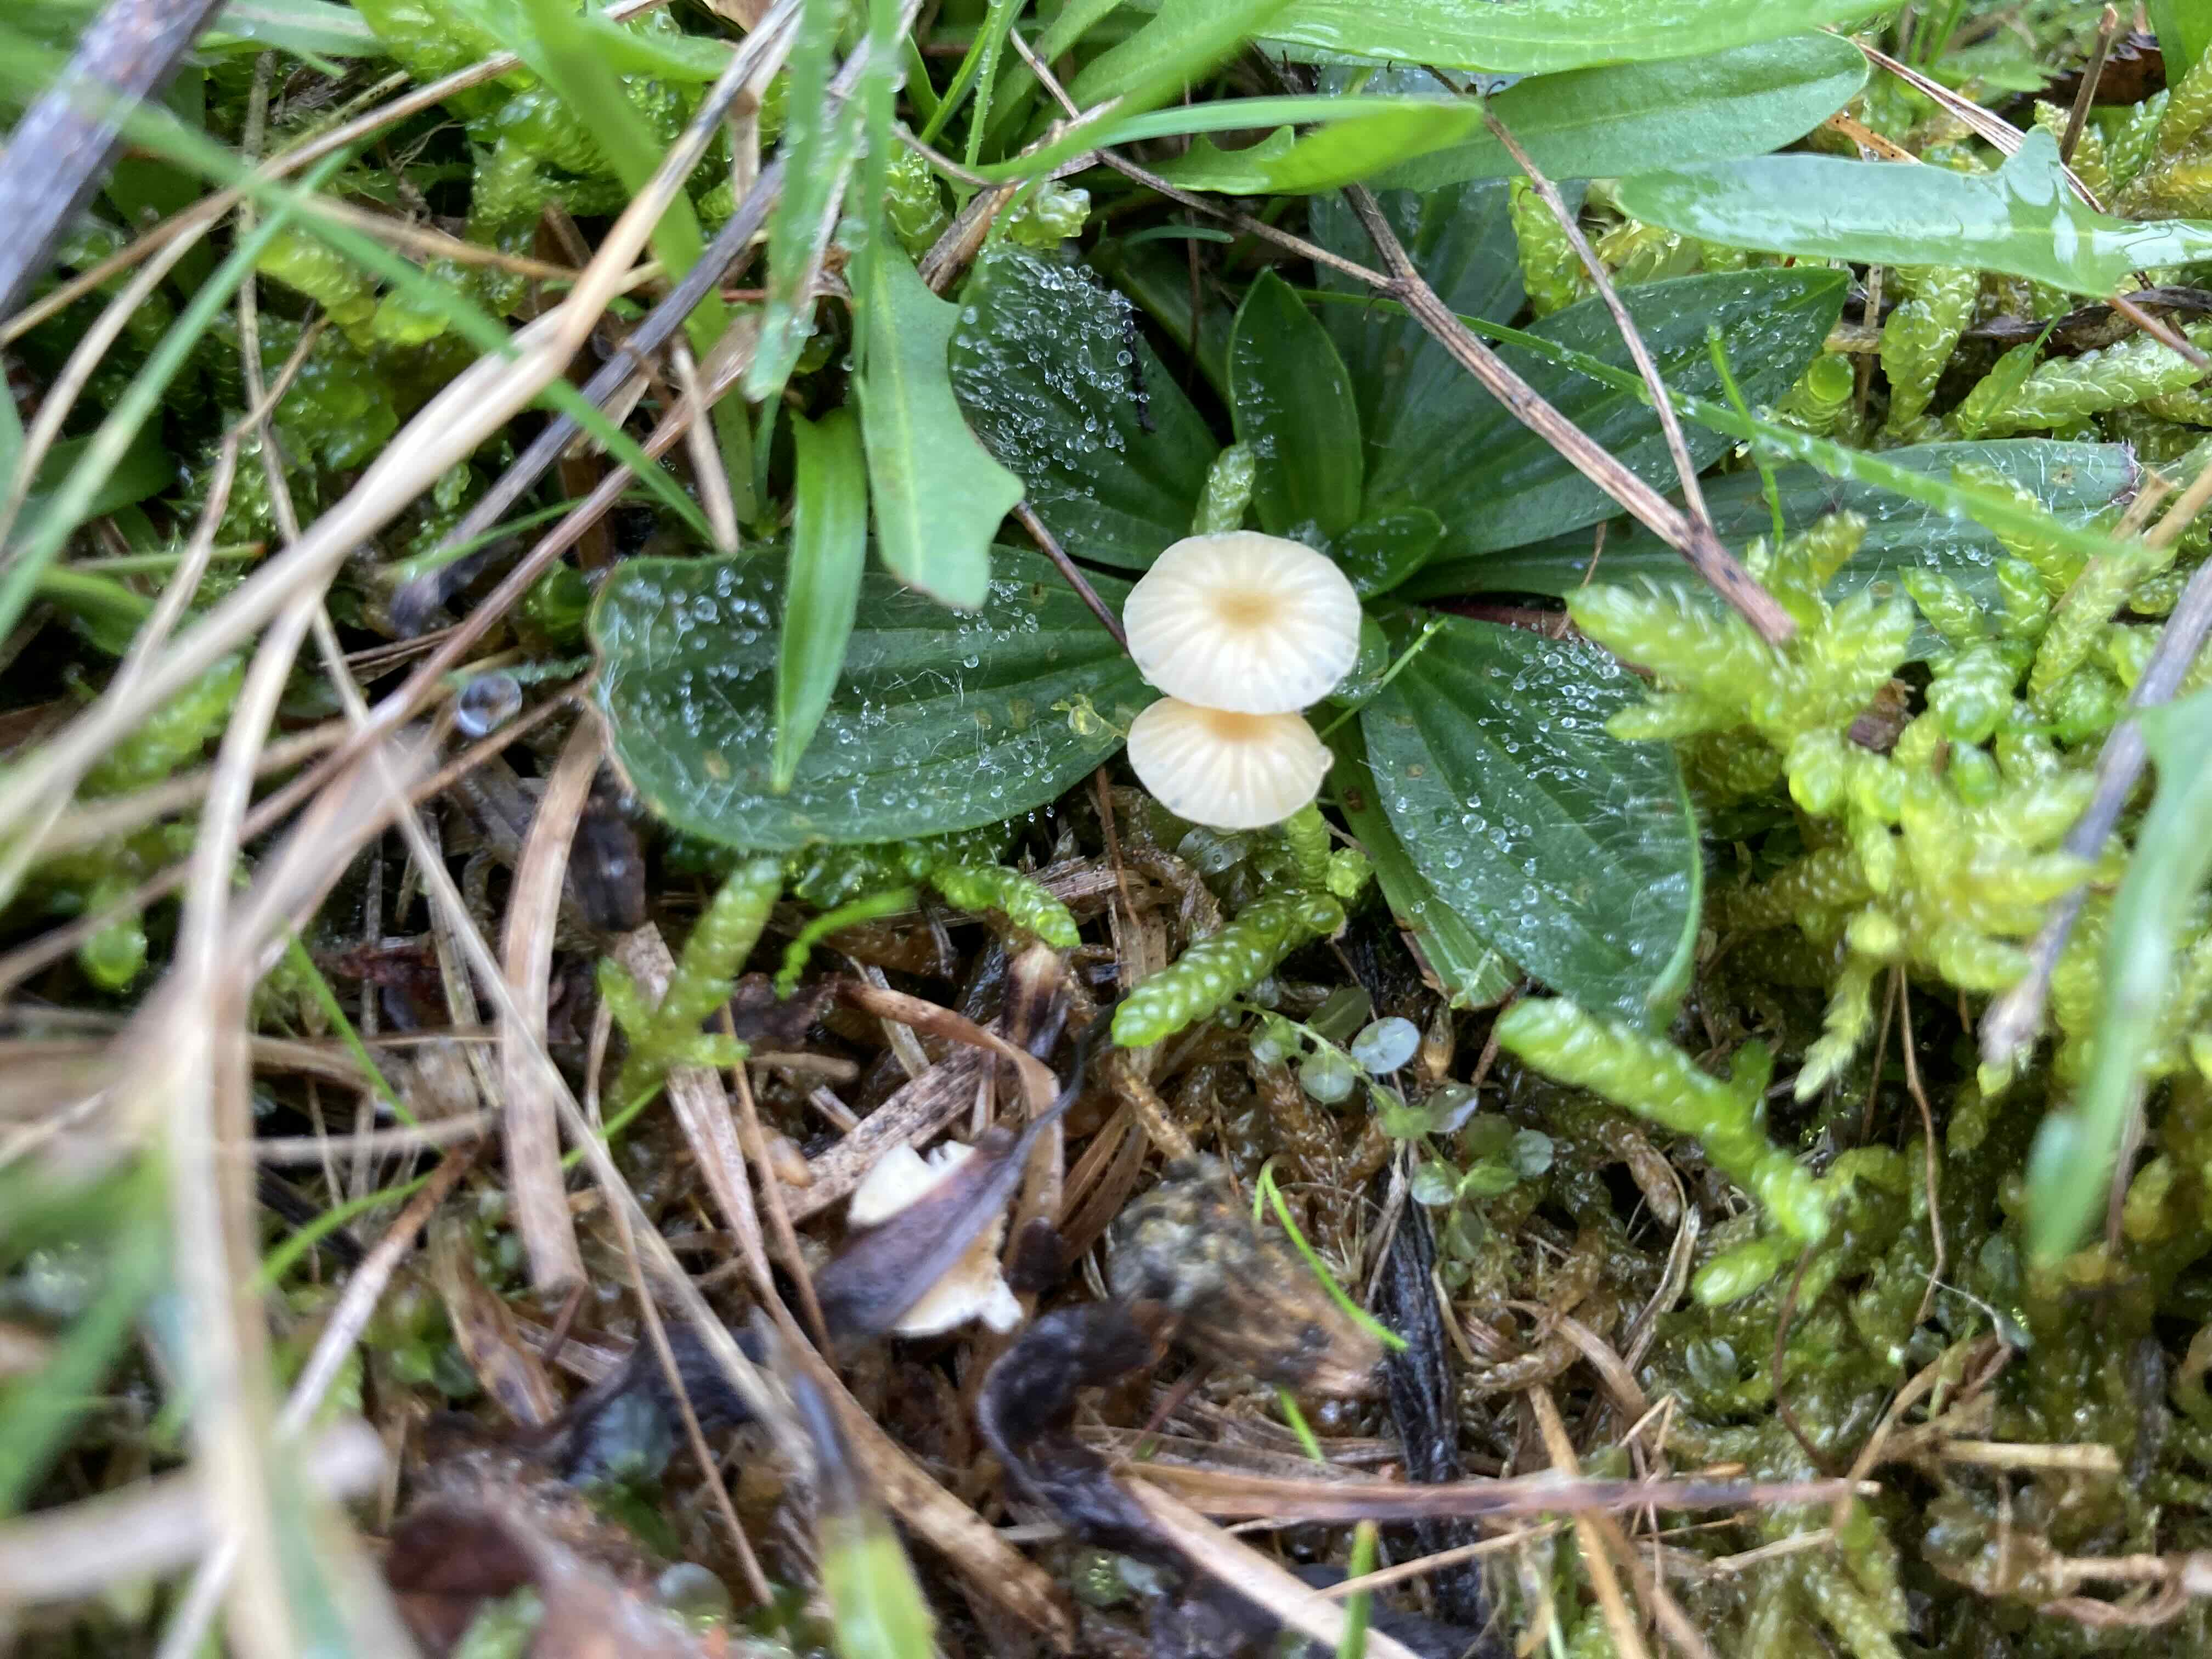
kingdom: Fungi
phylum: Basidiomycota
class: Agaricomycetes
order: Agaricales
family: Marasmiaceae
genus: Crinipellis
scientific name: Crinipellis scabella
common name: børstefod
